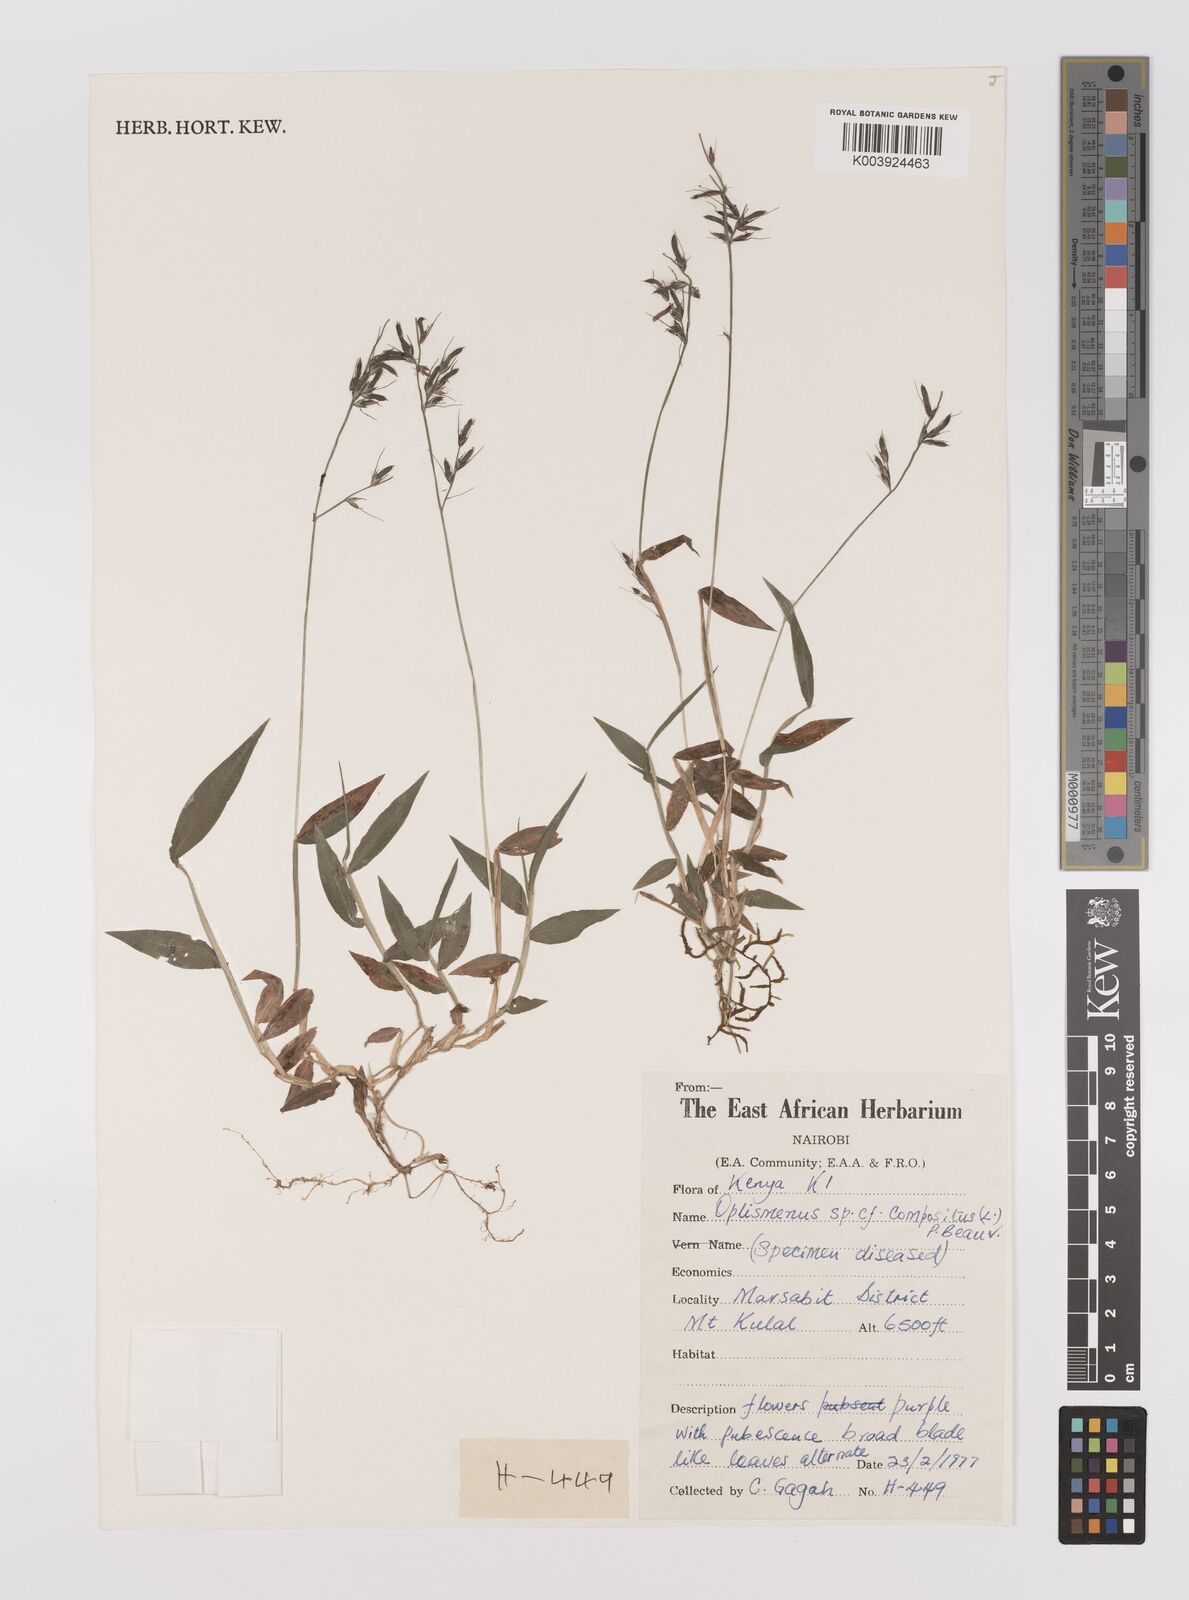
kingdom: Plantae
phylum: Tracheophyta
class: Liliopsida
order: Poales
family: Poaceae
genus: Oplismenus
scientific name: Oplismenus compositus
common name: Running mountain grass
